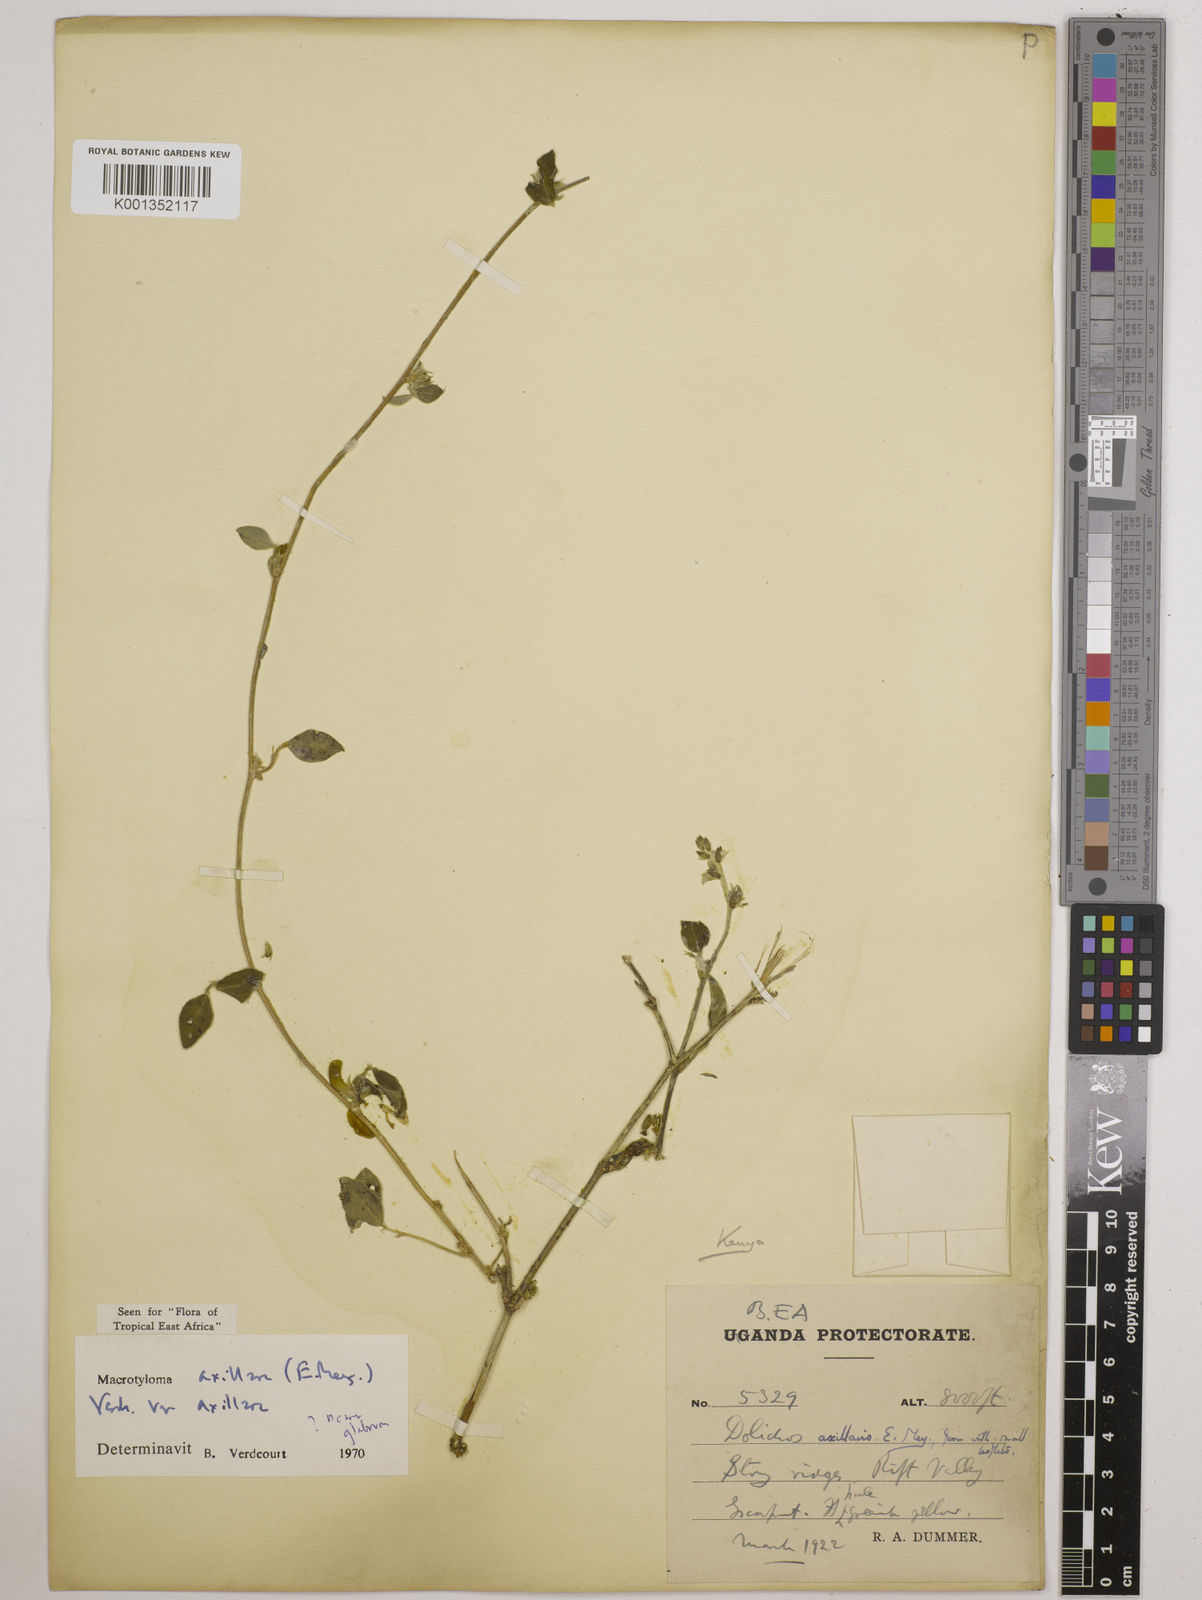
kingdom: Plantae
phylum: Tracheophyta
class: Magnoliopsida
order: Fabales
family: Fabaceae
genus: Macrotyloma
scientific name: Macrotyloma axillare
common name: Perennial horsegram
